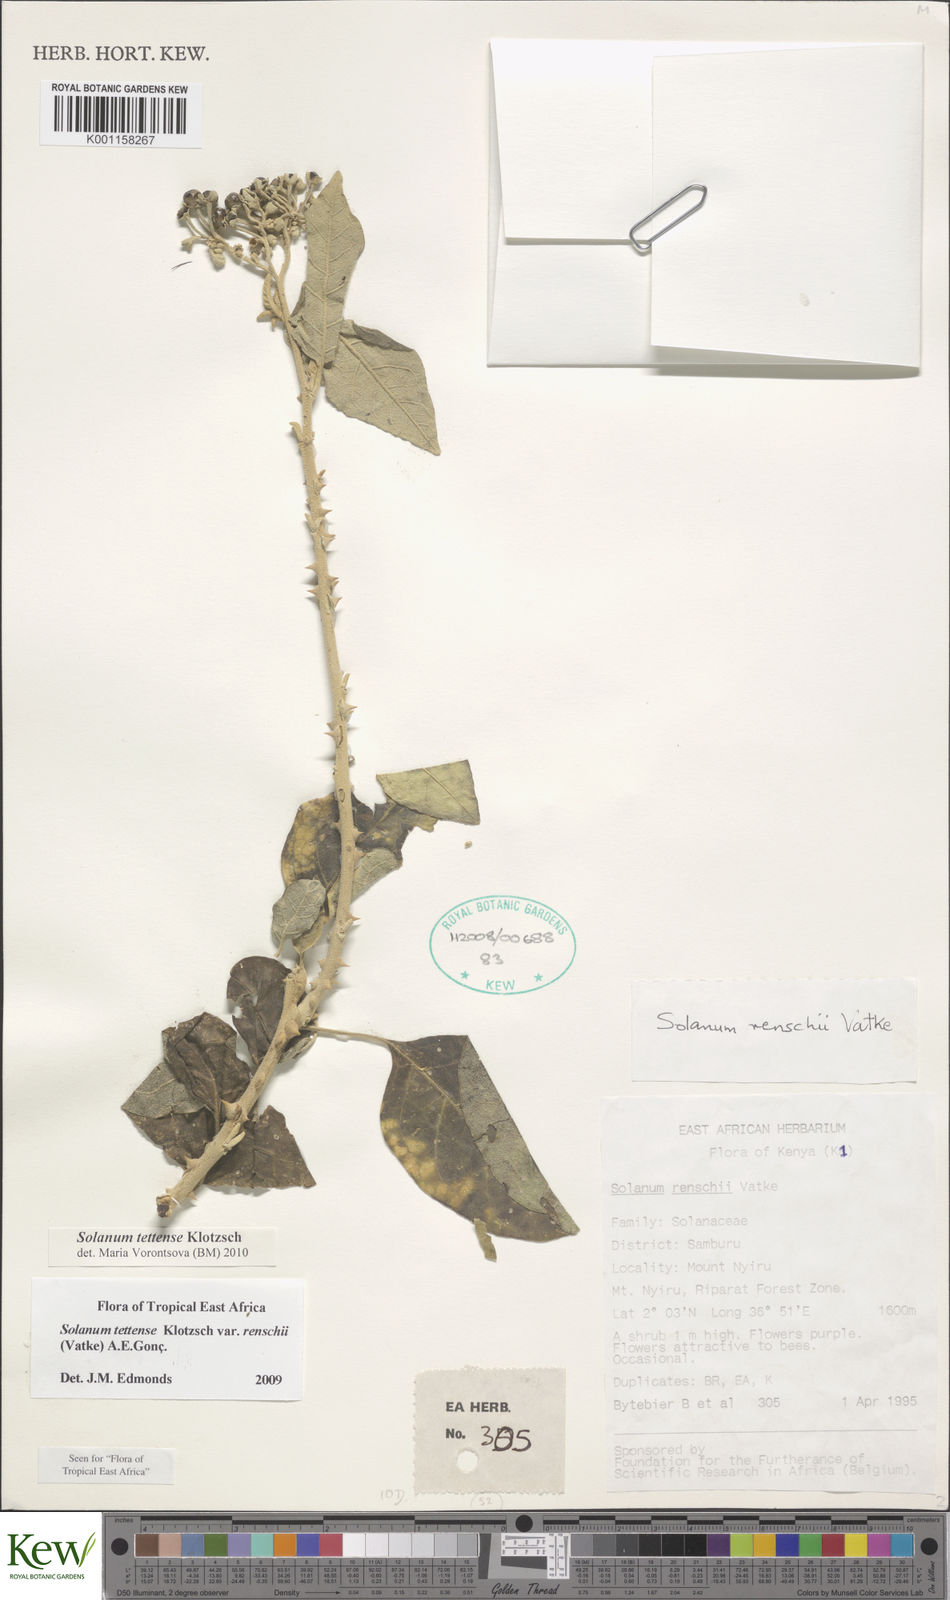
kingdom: Plantae
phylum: Tracheophyta
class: Magnoliopsida
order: Solanales
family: Solanaceae
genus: Solanum
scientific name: Solanum tettense
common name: Mozambique bitter apple
